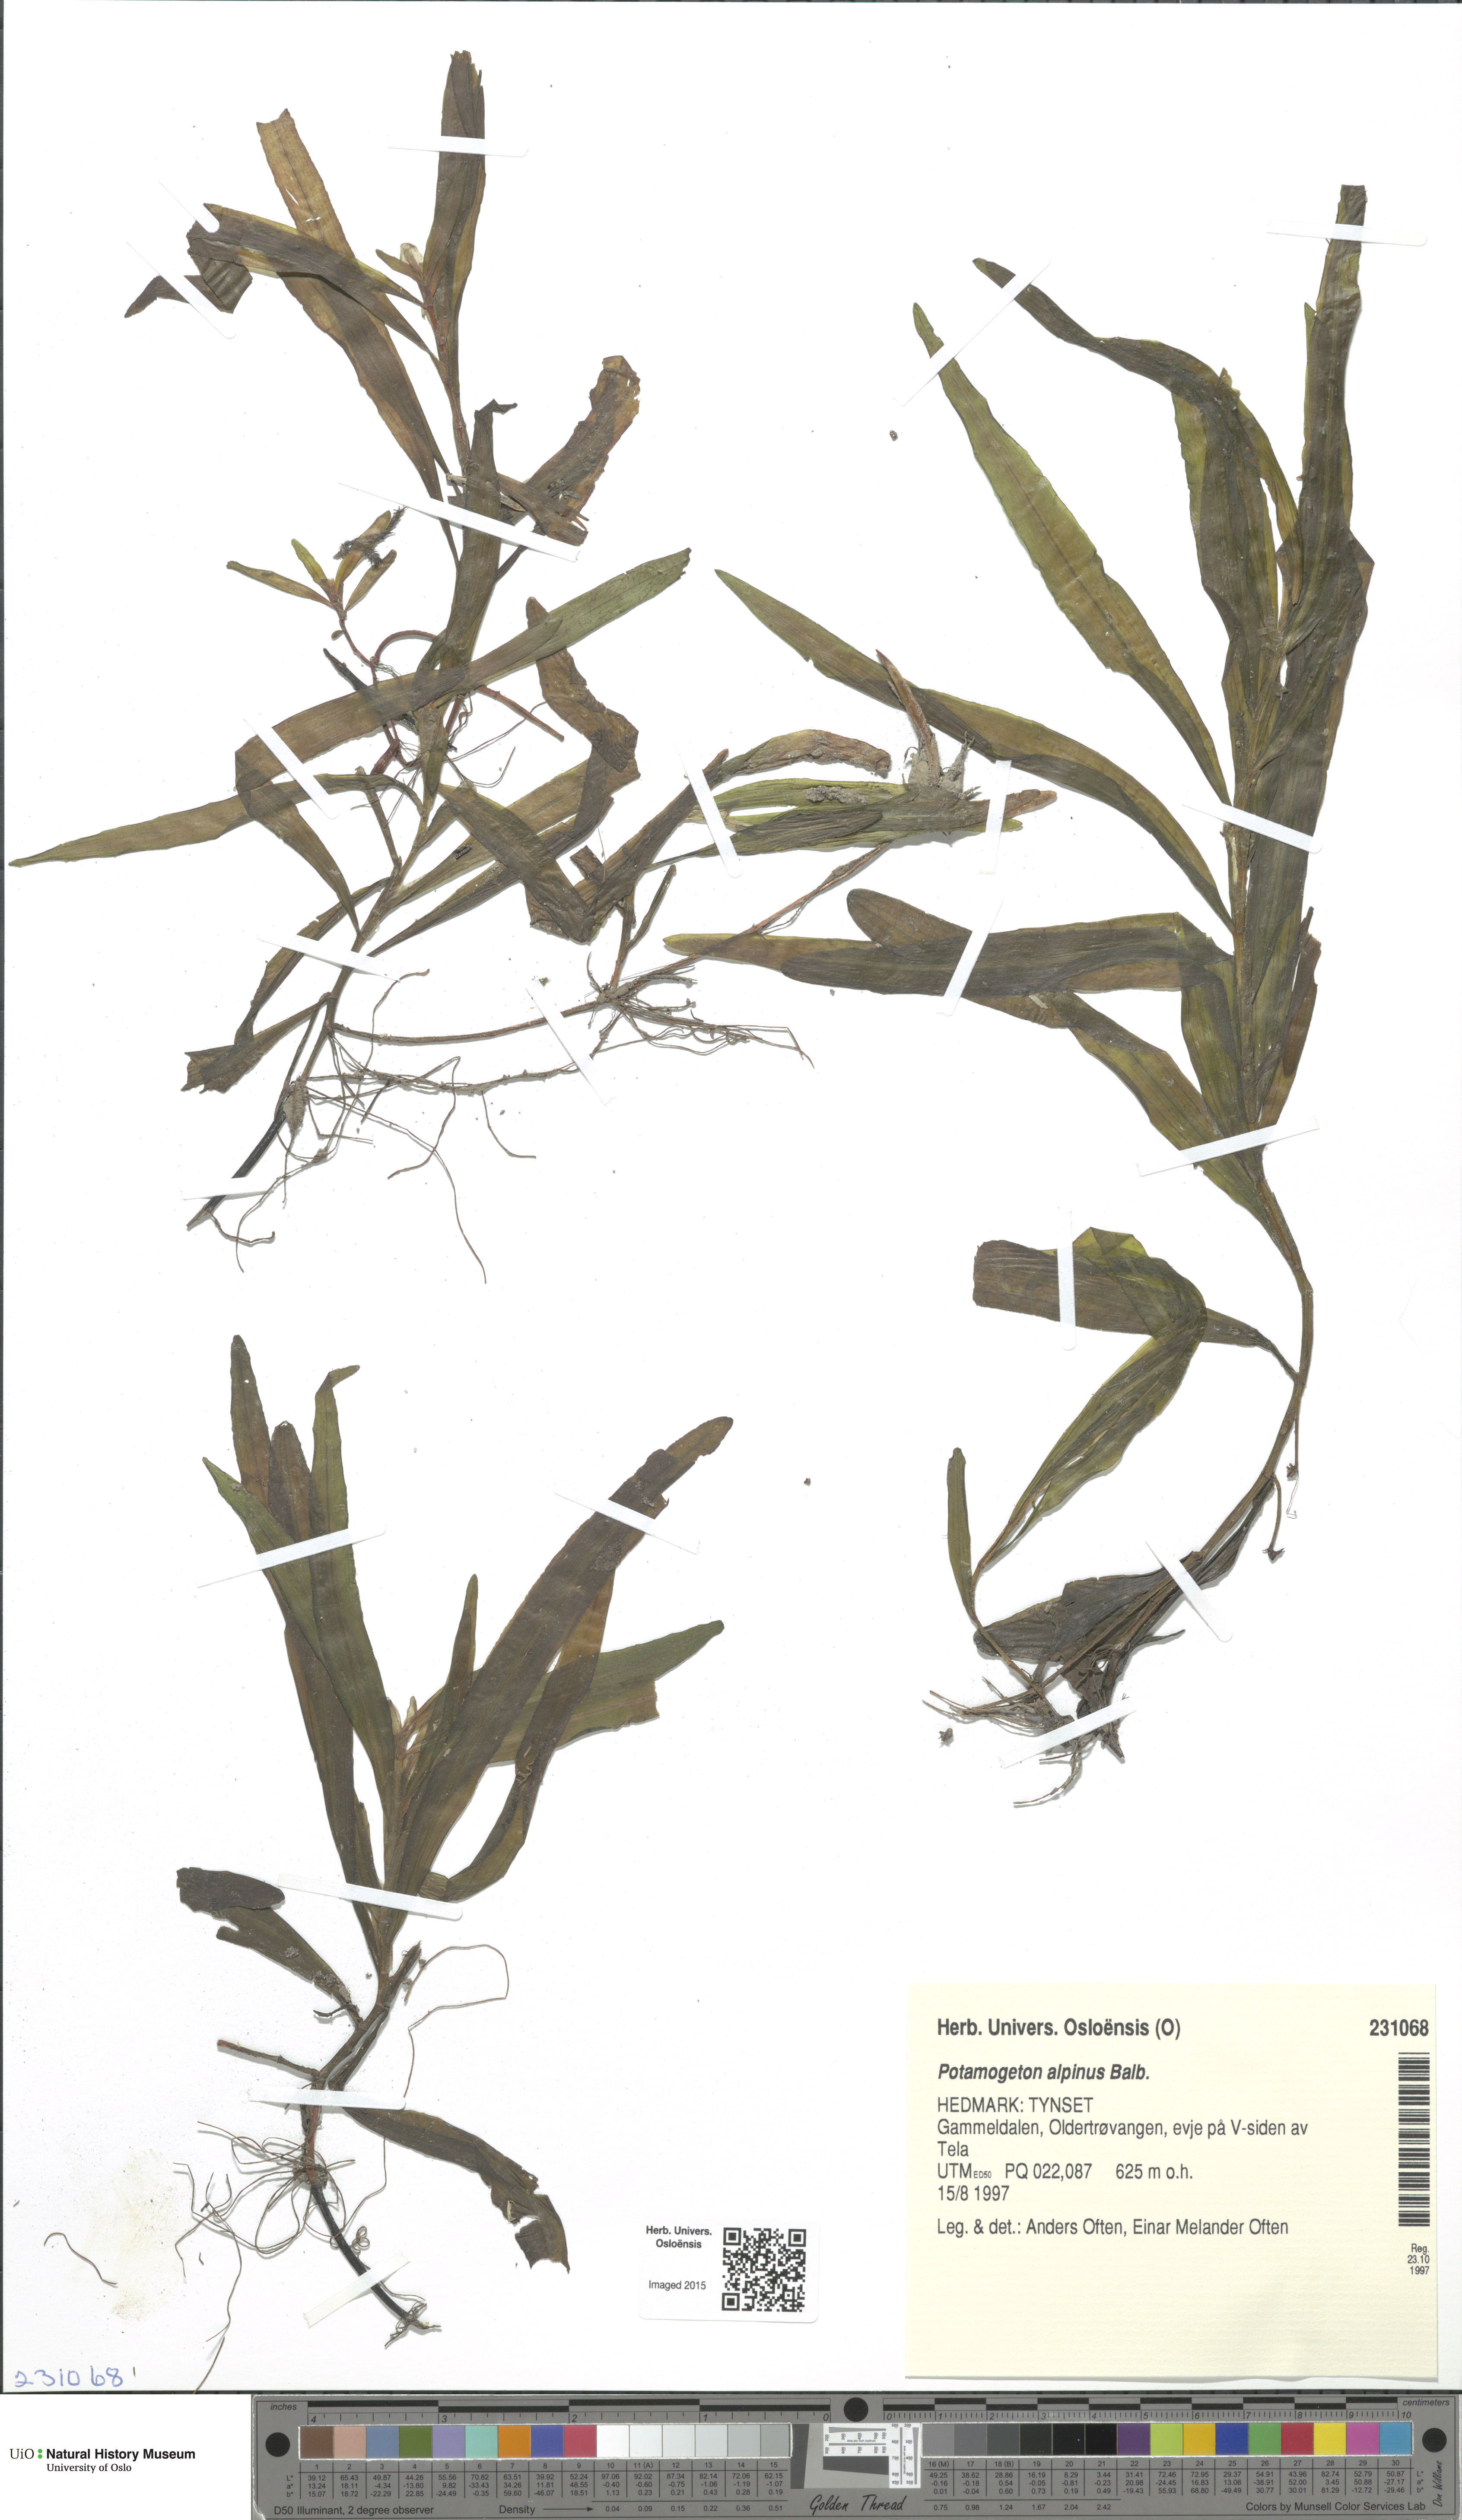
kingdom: Plantae
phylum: Tracheophyta
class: Liliopsida
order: Alismatales
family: Potamogetonaceae
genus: Potamogeton
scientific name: Potamogeton alpinus
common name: Red pondweed
